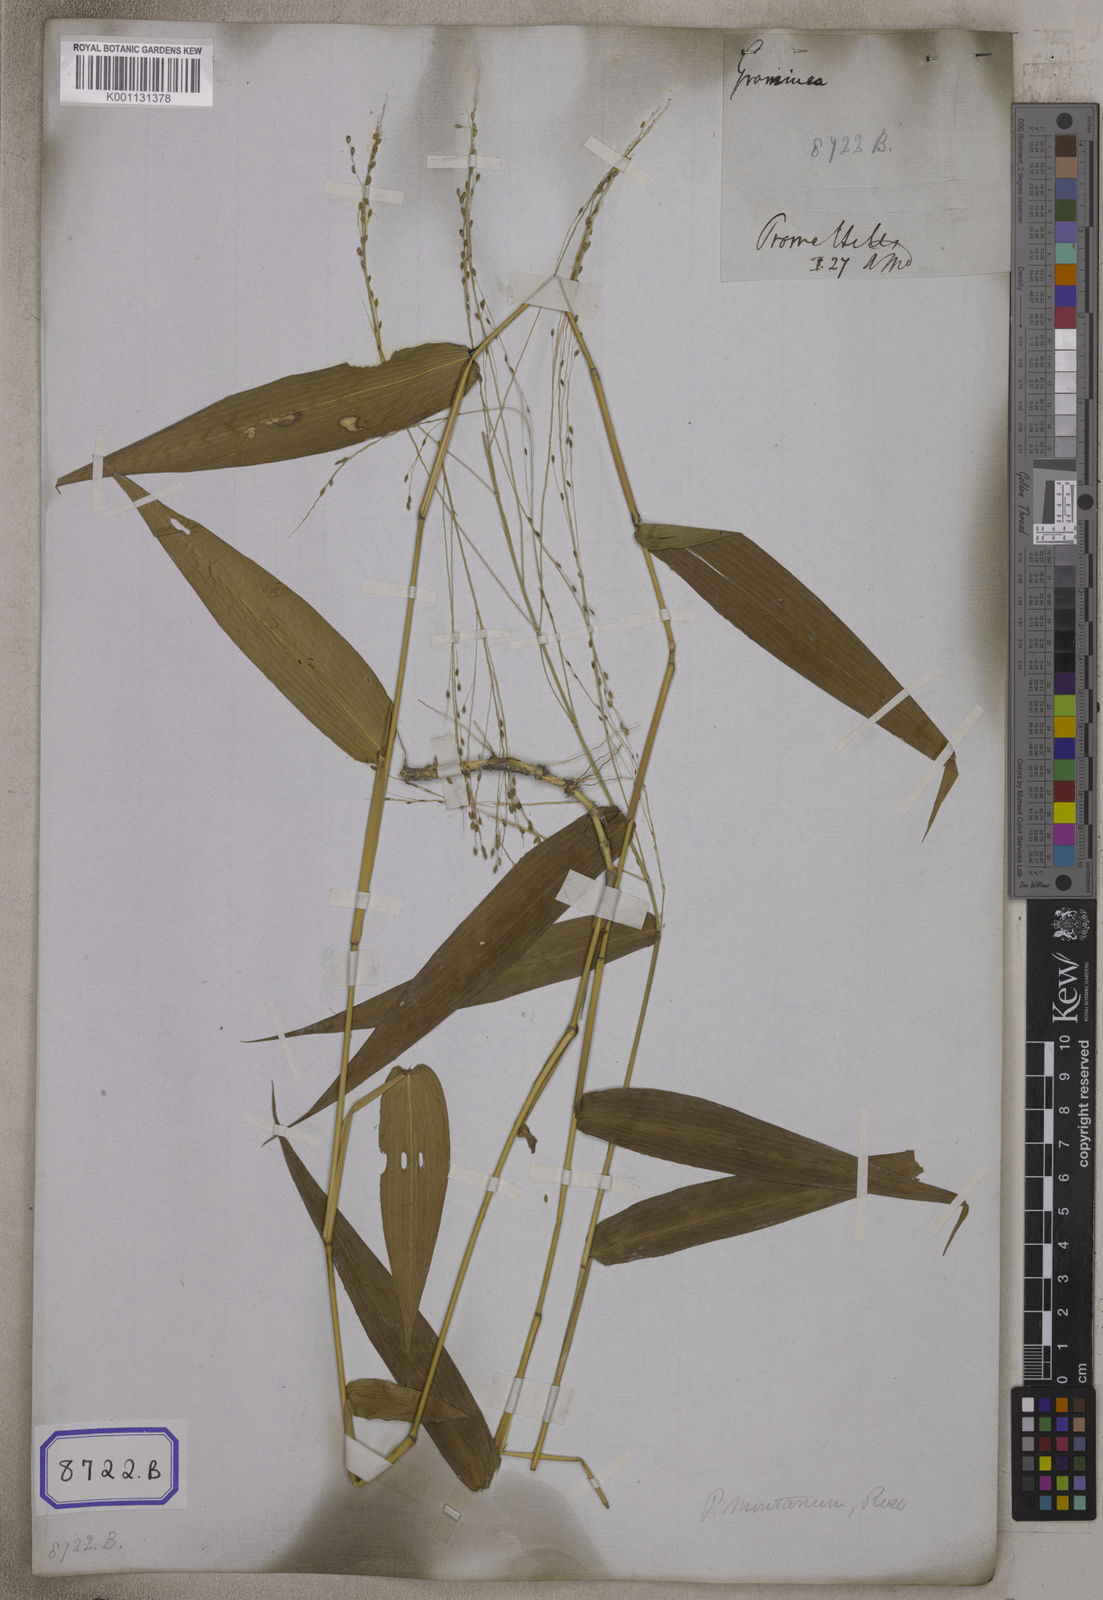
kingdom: Plantae
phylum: Tracheophyta
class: Liliopsida
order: Poales
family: Poaceae
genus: Panicum
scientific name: Panicum
